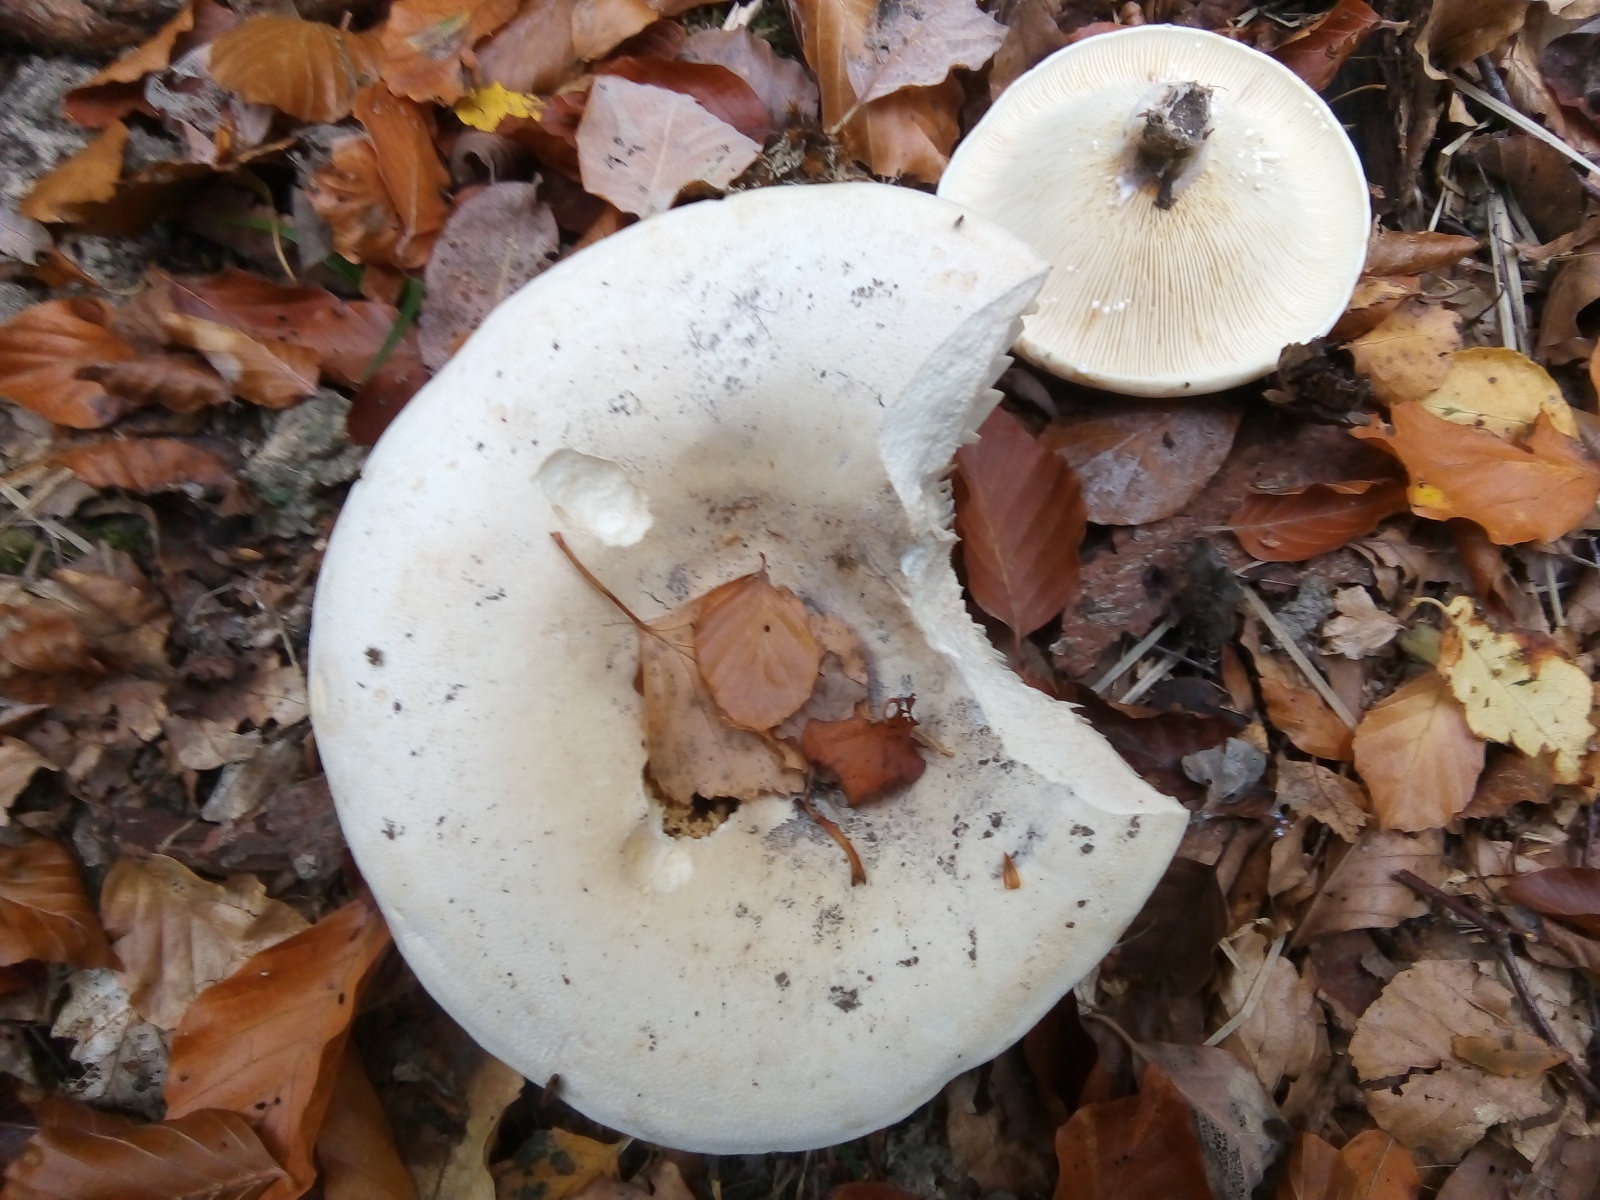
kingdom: Fungi
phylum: Basidiomycota
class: Agaricomycetes
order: Russulales
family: Russulaceae
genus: Lactifluus
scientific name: Lactifluus vellereus
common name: hvidfiltet mælkehat
